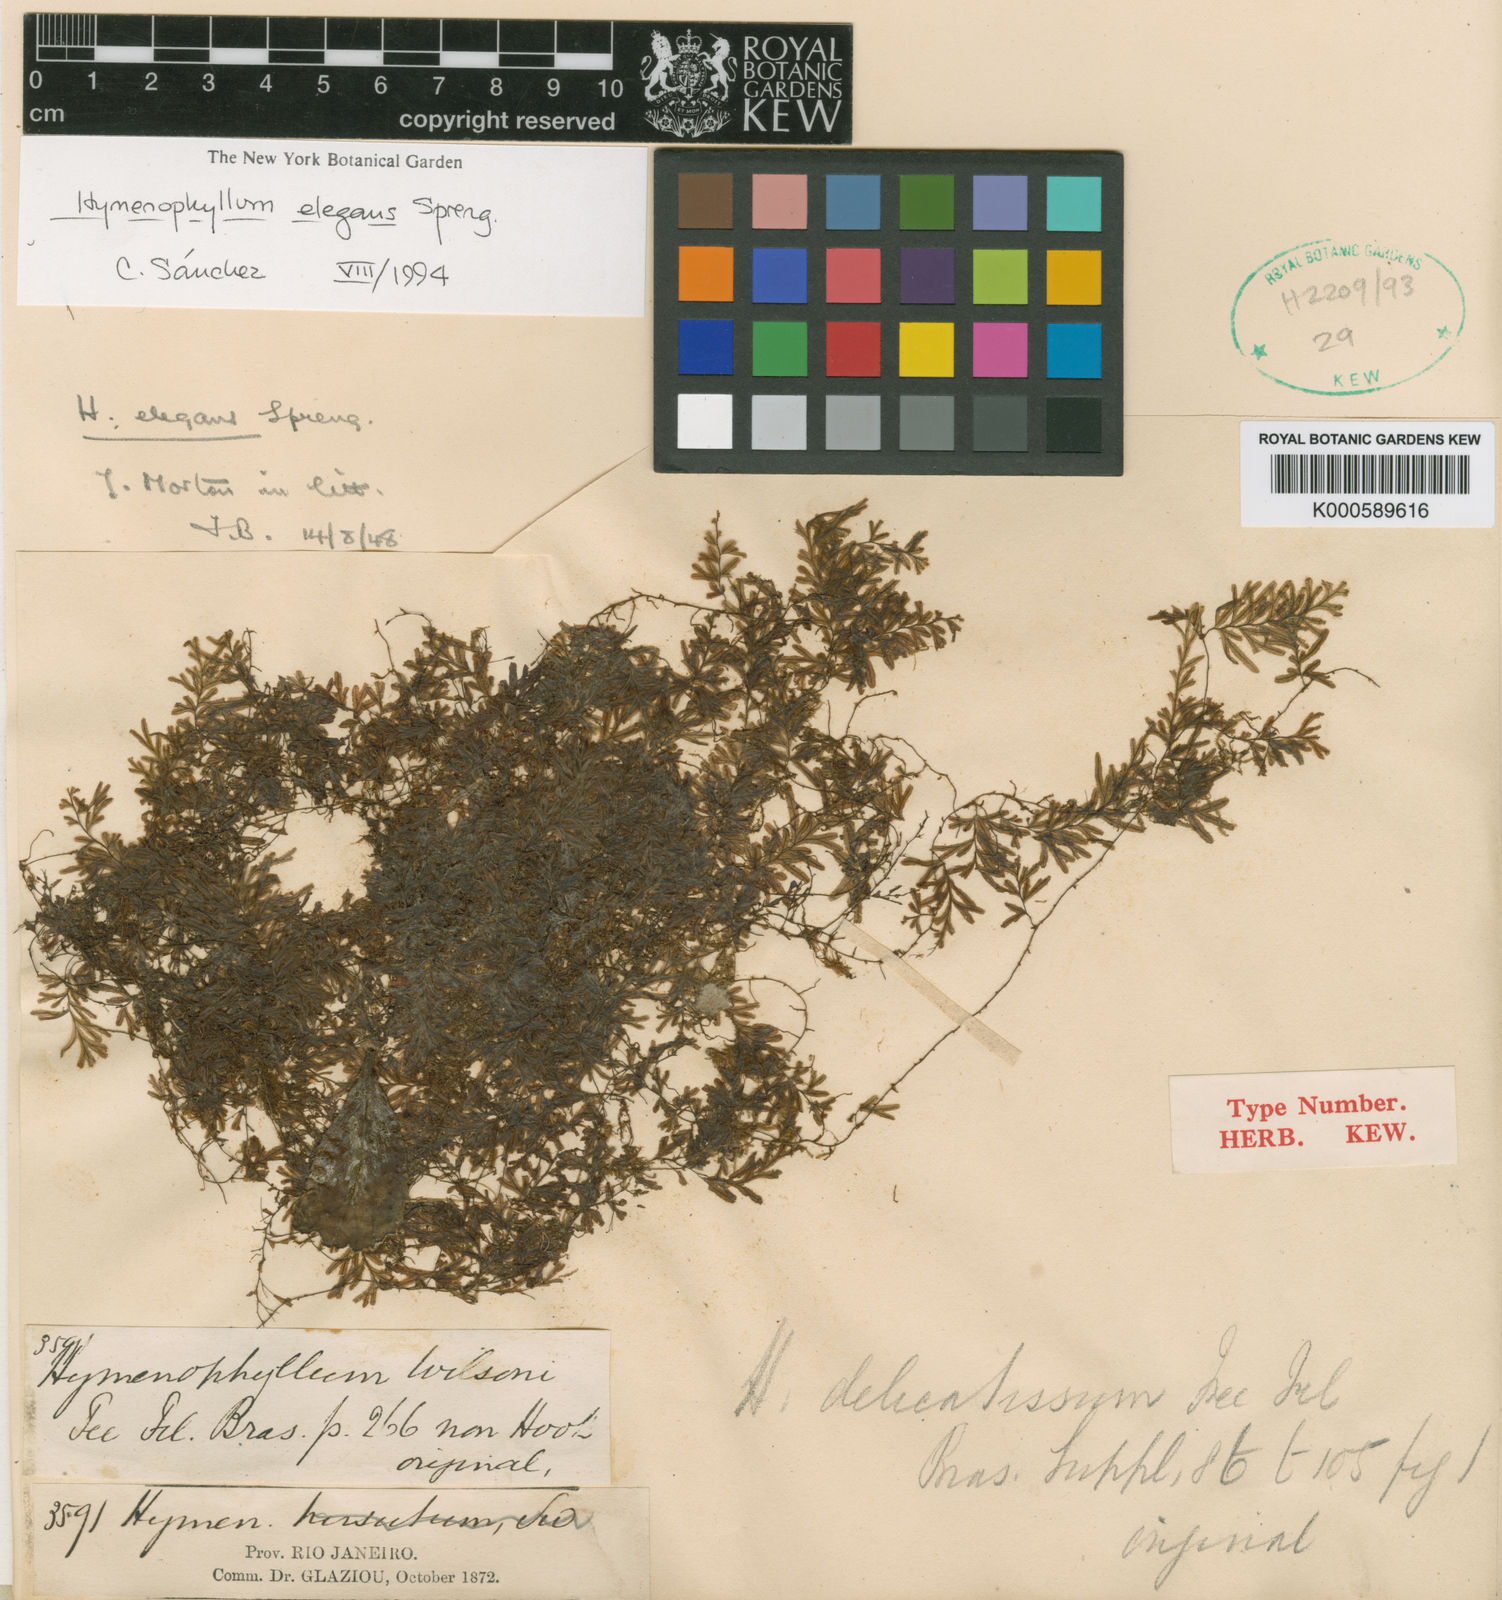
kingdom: Plantae
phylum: Tracheophyta
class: Polypodiopsida
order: Hymenophyllales
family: Hymenophyllaceae
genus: Hymenophyllum
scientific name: Hymenophyllum elegans
